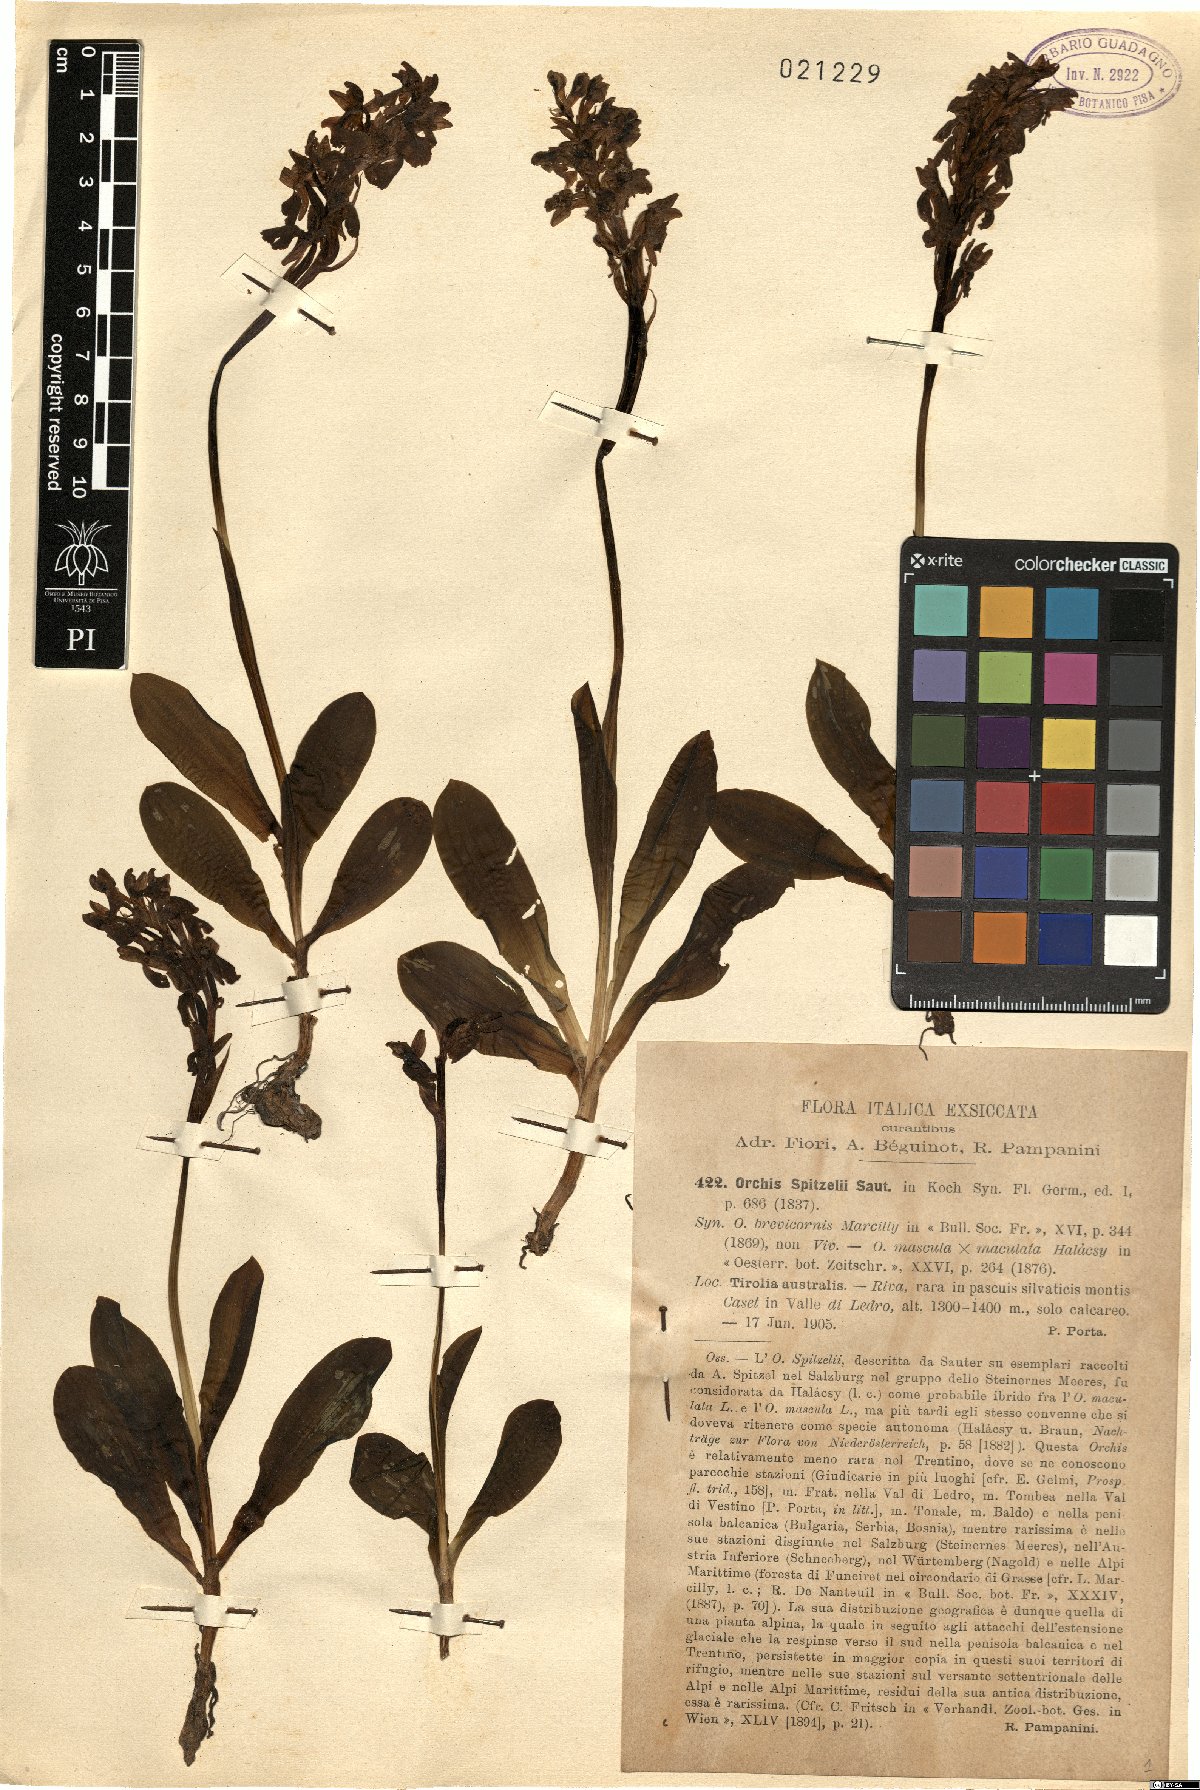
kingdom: Plantae
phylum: Tracheophyta
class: Liliopsida
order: Asparagales
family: Orchidaceae
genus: Orchis
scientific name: Orchis spitzelii
